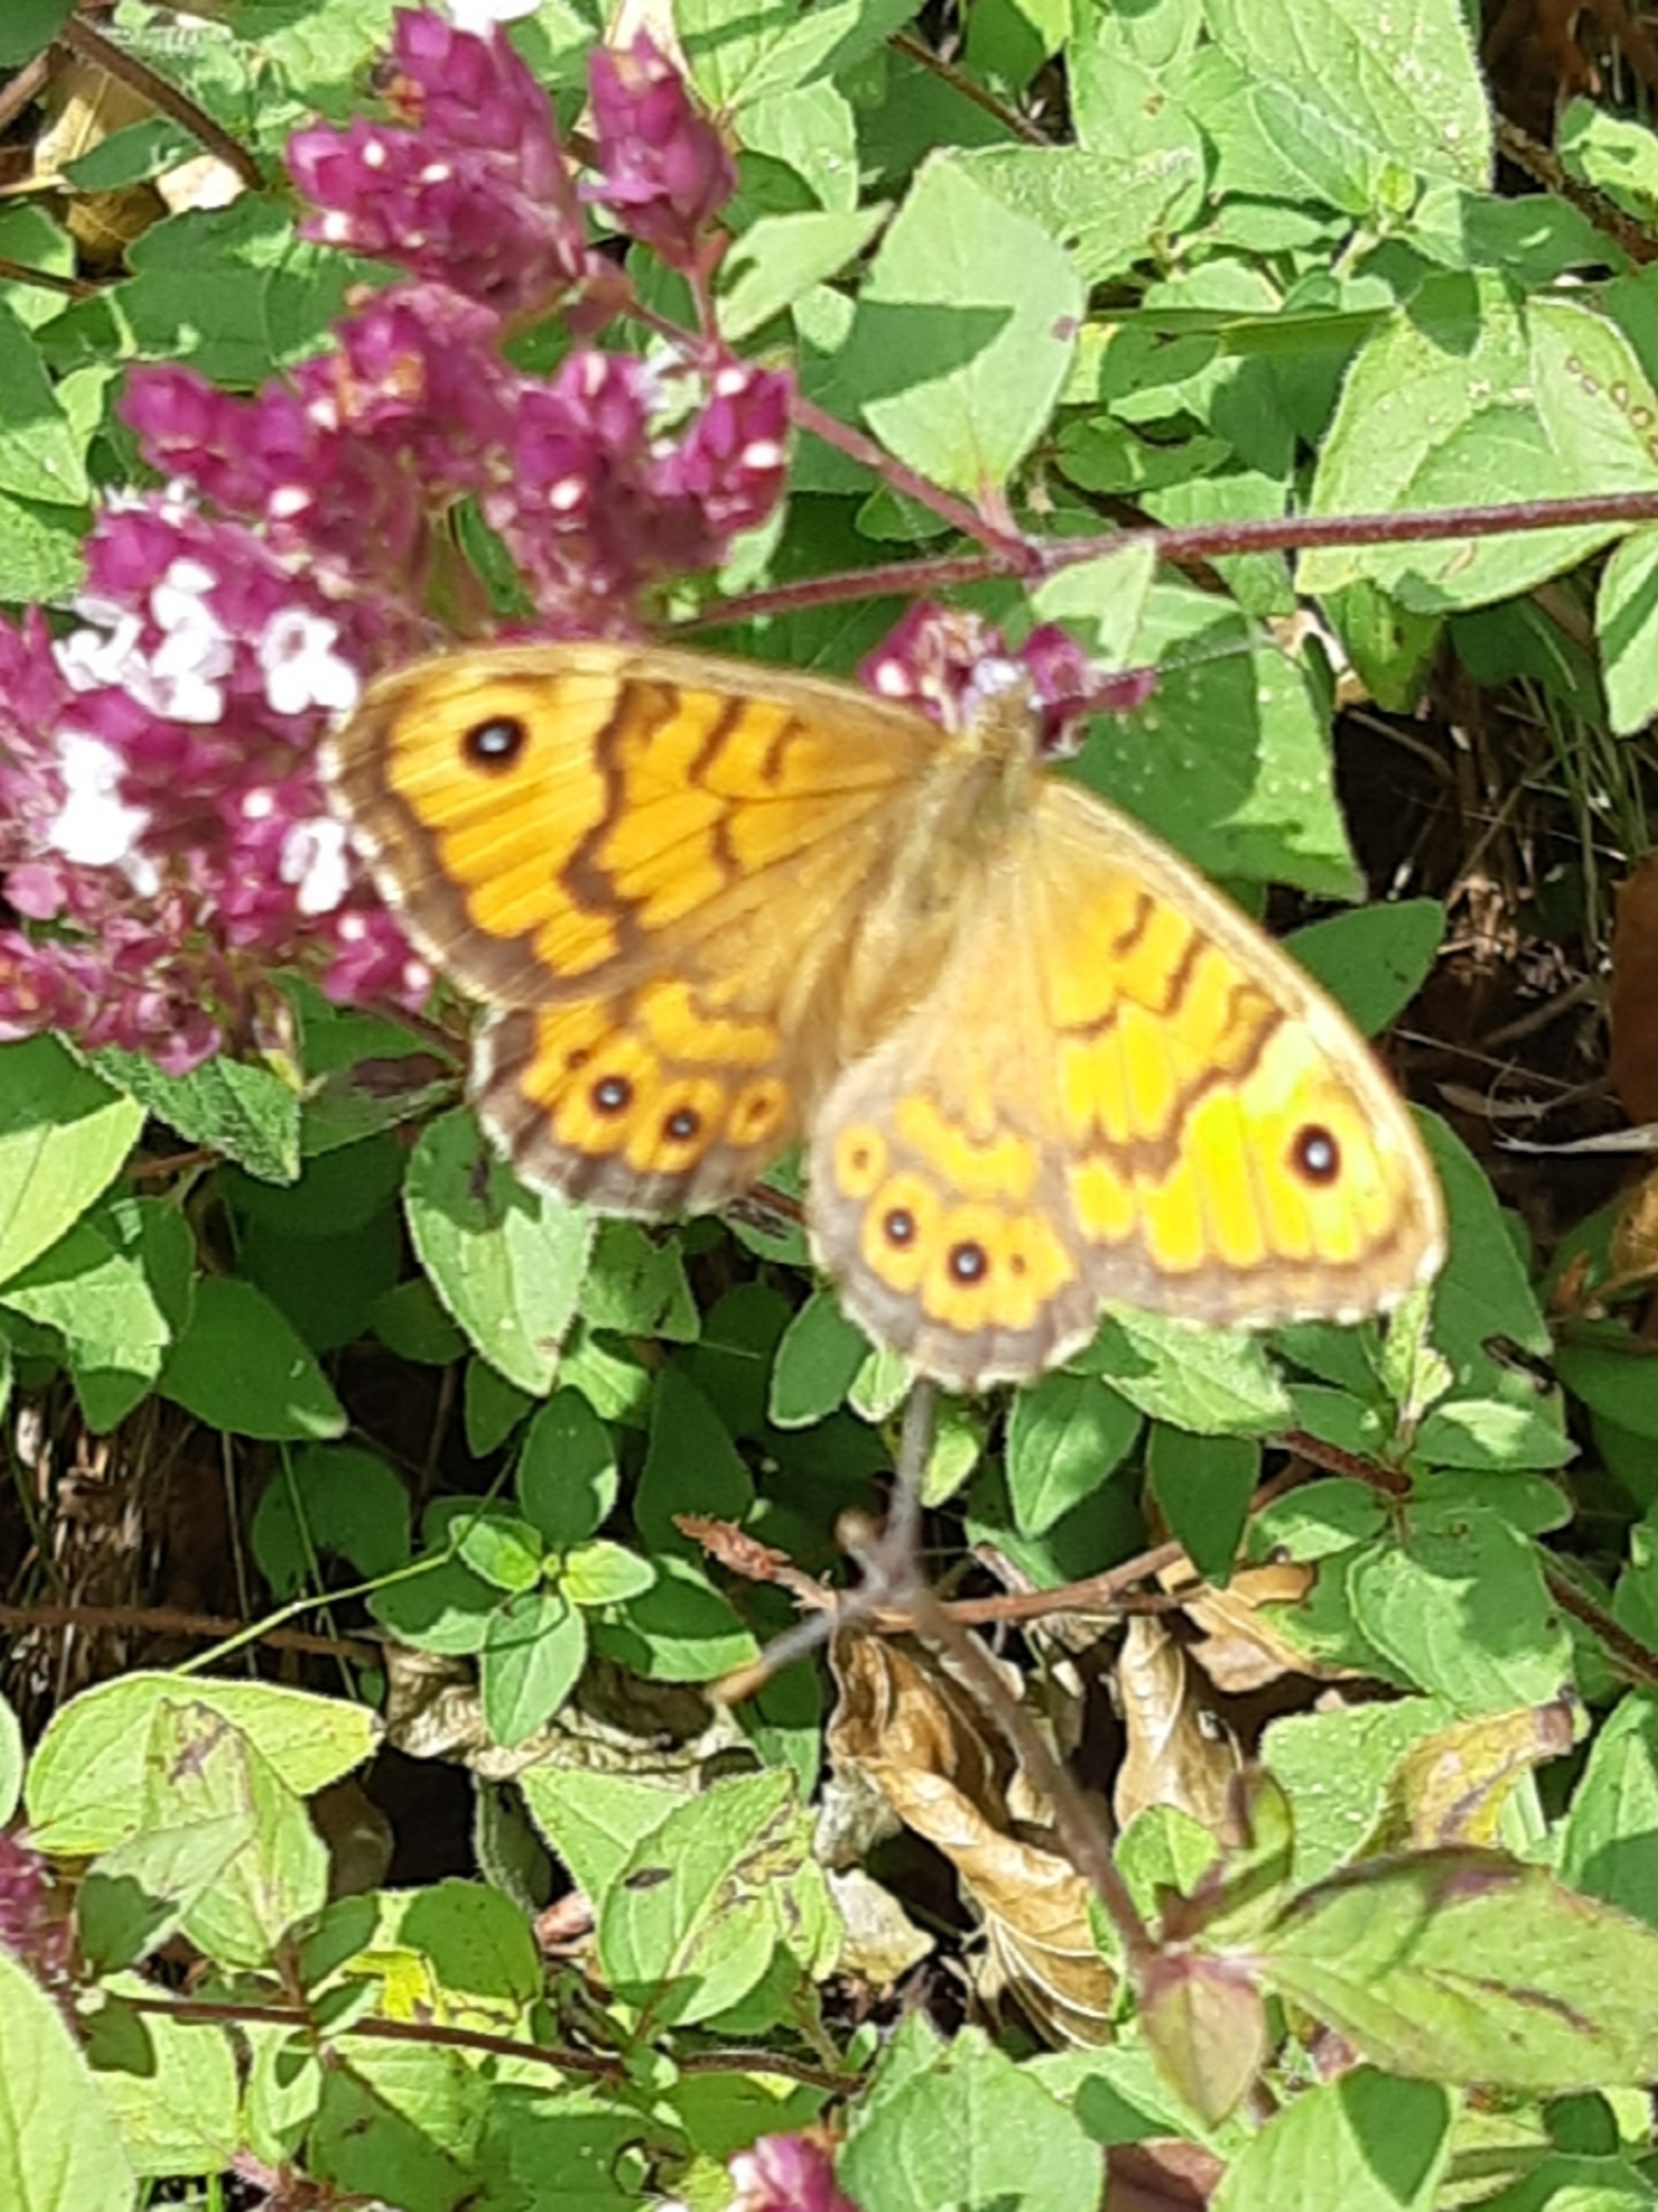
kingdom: Animalia
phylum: Arthropoda
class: Insecta
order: Lepidoptera
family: Nymphalidae
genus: Pararge
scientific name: Pararge Lasiommata megera
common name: Vejrandøje
